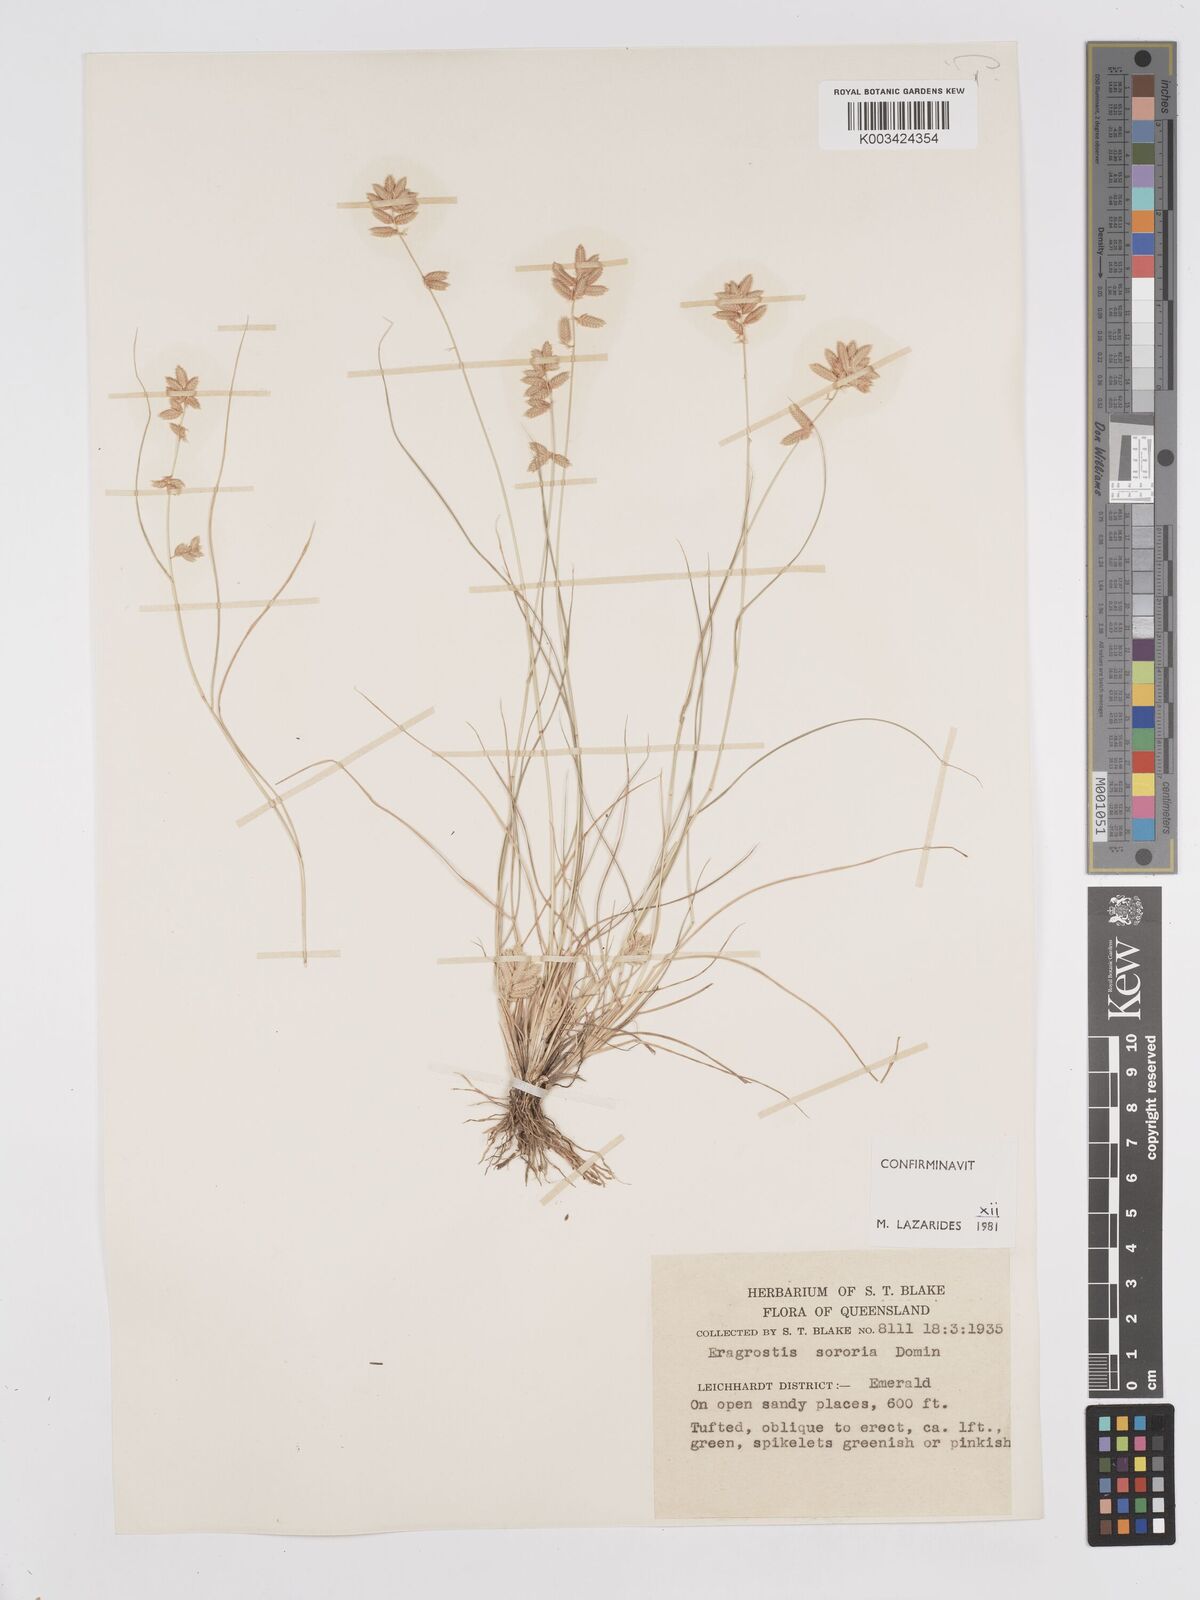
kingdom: Plantae
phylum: Tracheophyta
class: Liliopsida
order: Poales
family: Poaceae
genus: Eragrostis
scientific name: Eragrostis sororia
